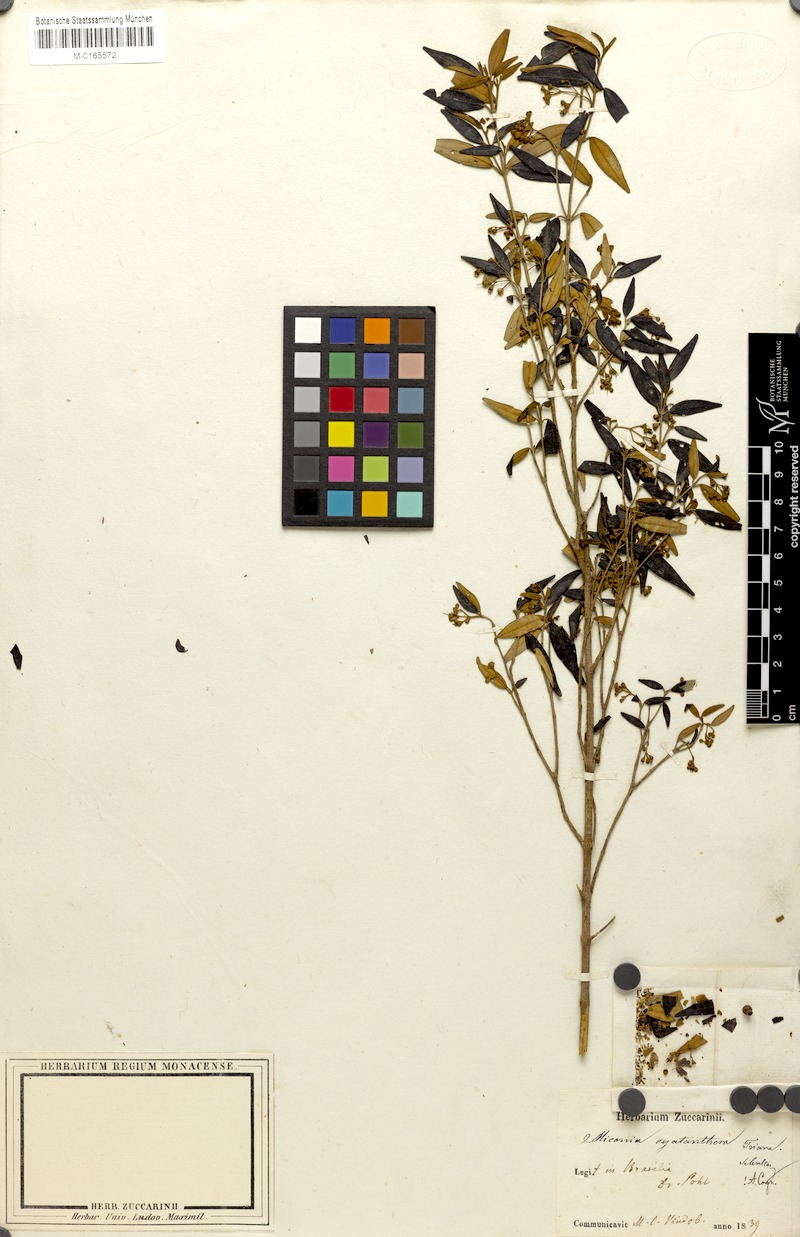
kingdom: Plantae
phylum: Tracheophyta
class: Magnoliopsida
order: Myrtales
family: Melastomataceae
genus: Miconia
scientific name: Miconia cyathanthera
